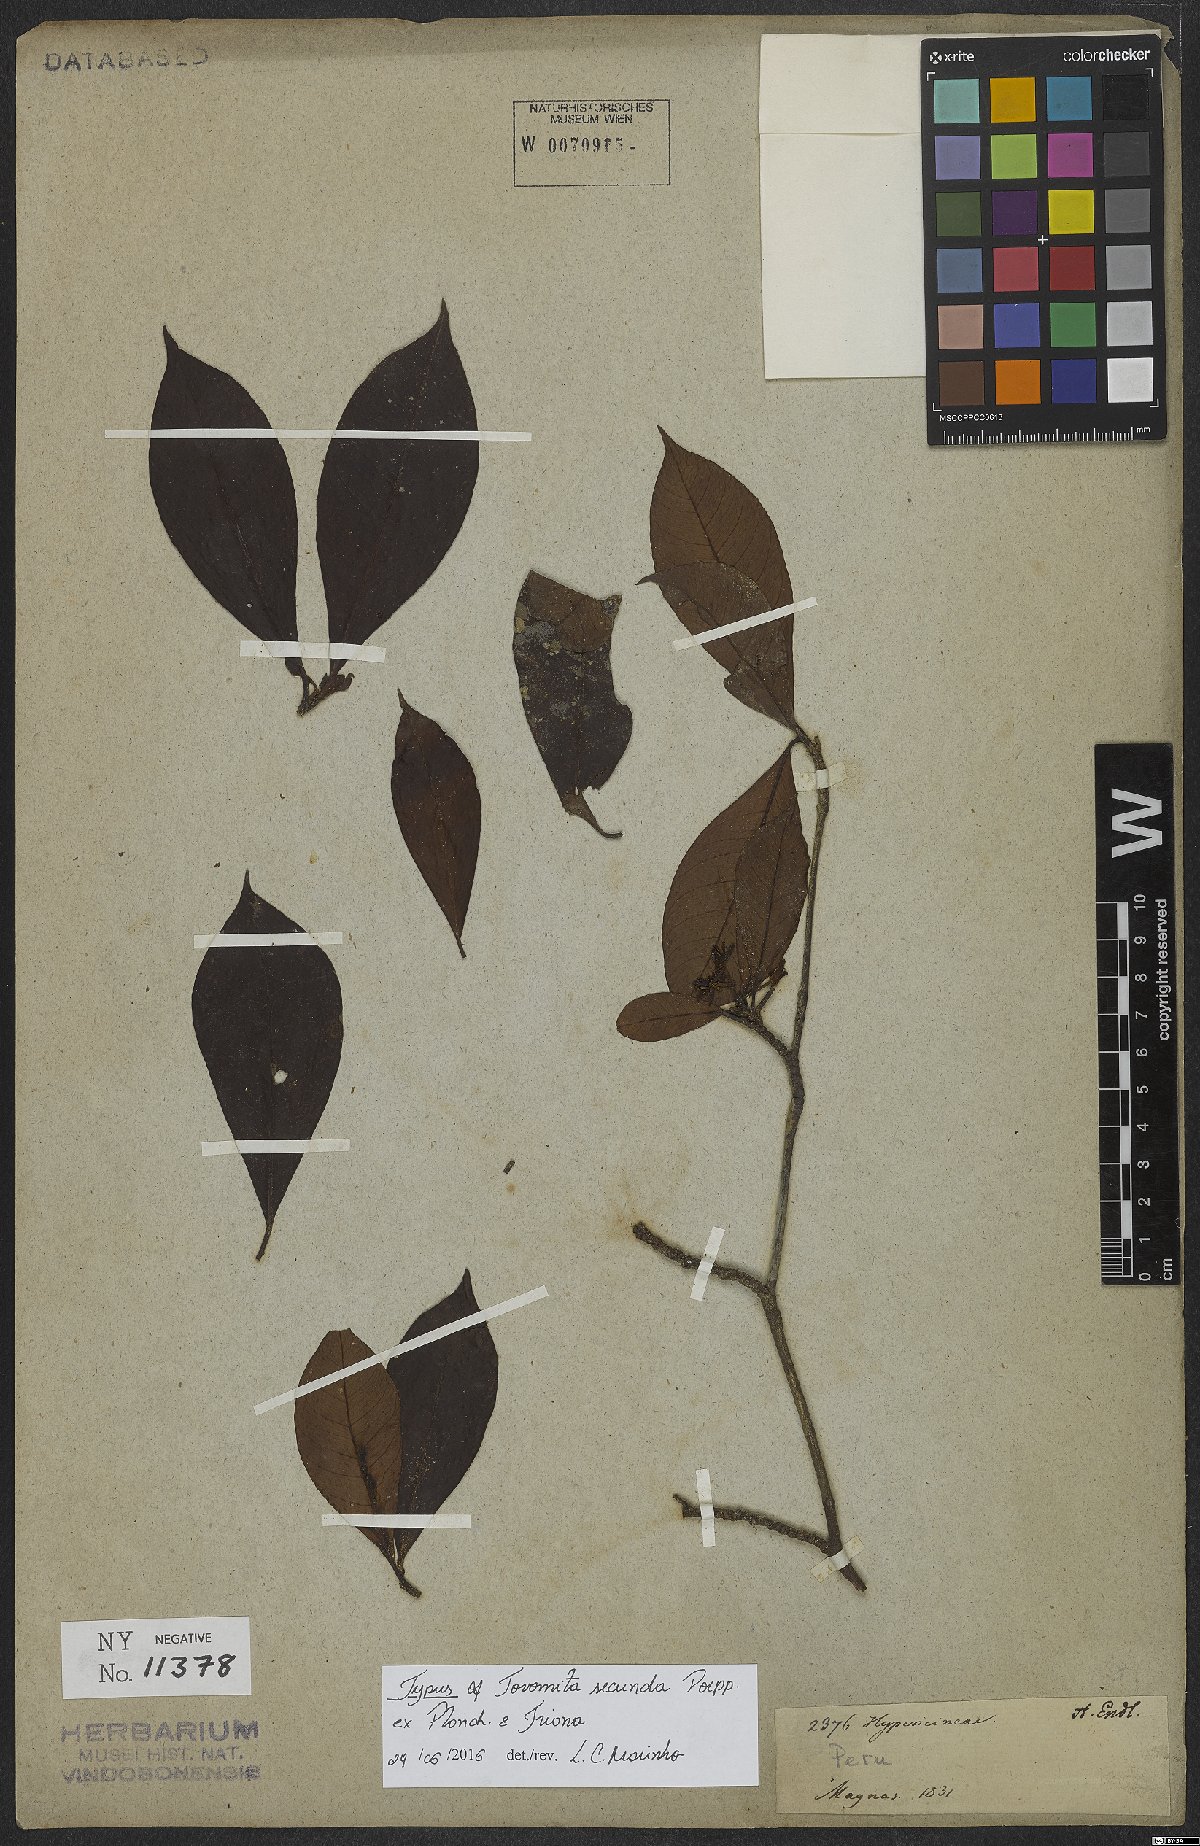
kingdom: Plantae
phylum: Tracheophyta
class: Magnoliopsida
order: Malpighiales
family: Clusiaceae
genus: Tovomita
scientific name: Tovomita secunda
